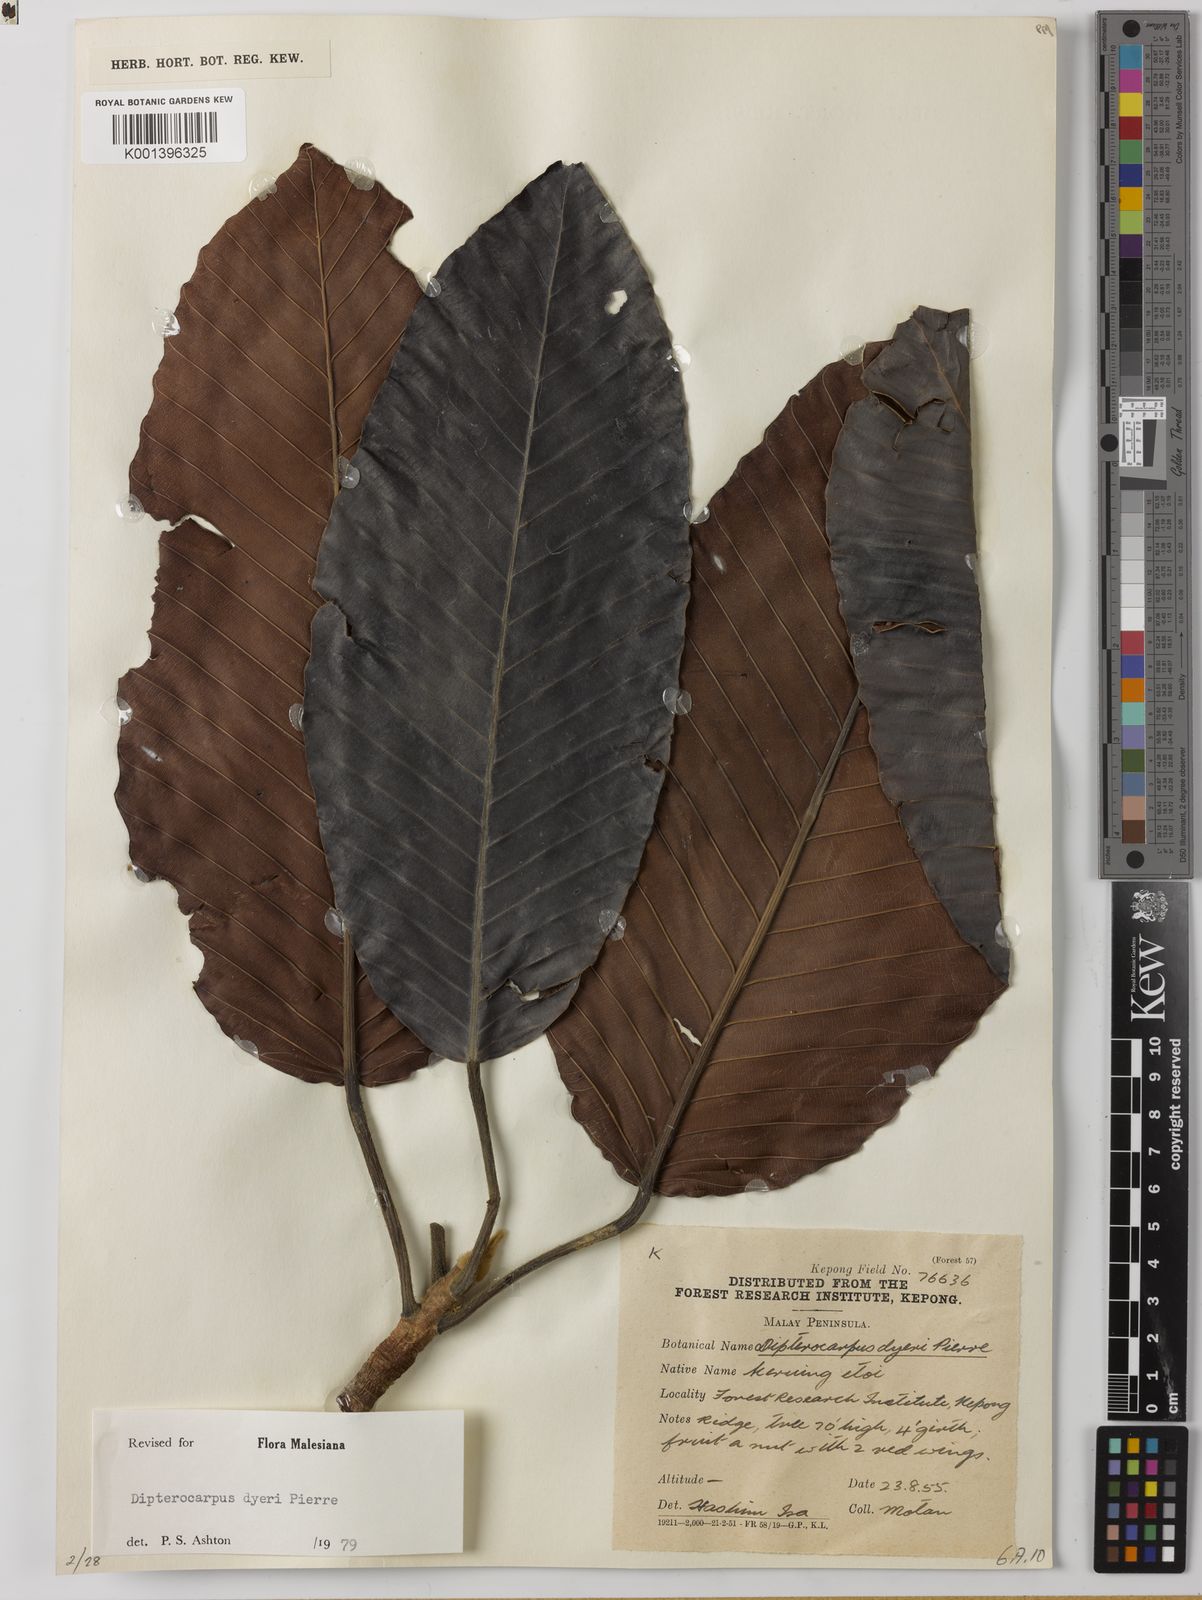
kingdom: Plantae
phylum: Tracheophyta
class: Magnoliopsida
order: Malvales
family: Dipterocarpaceae
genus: Dipterocarpus
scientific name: Dipterocarpus dyeri
